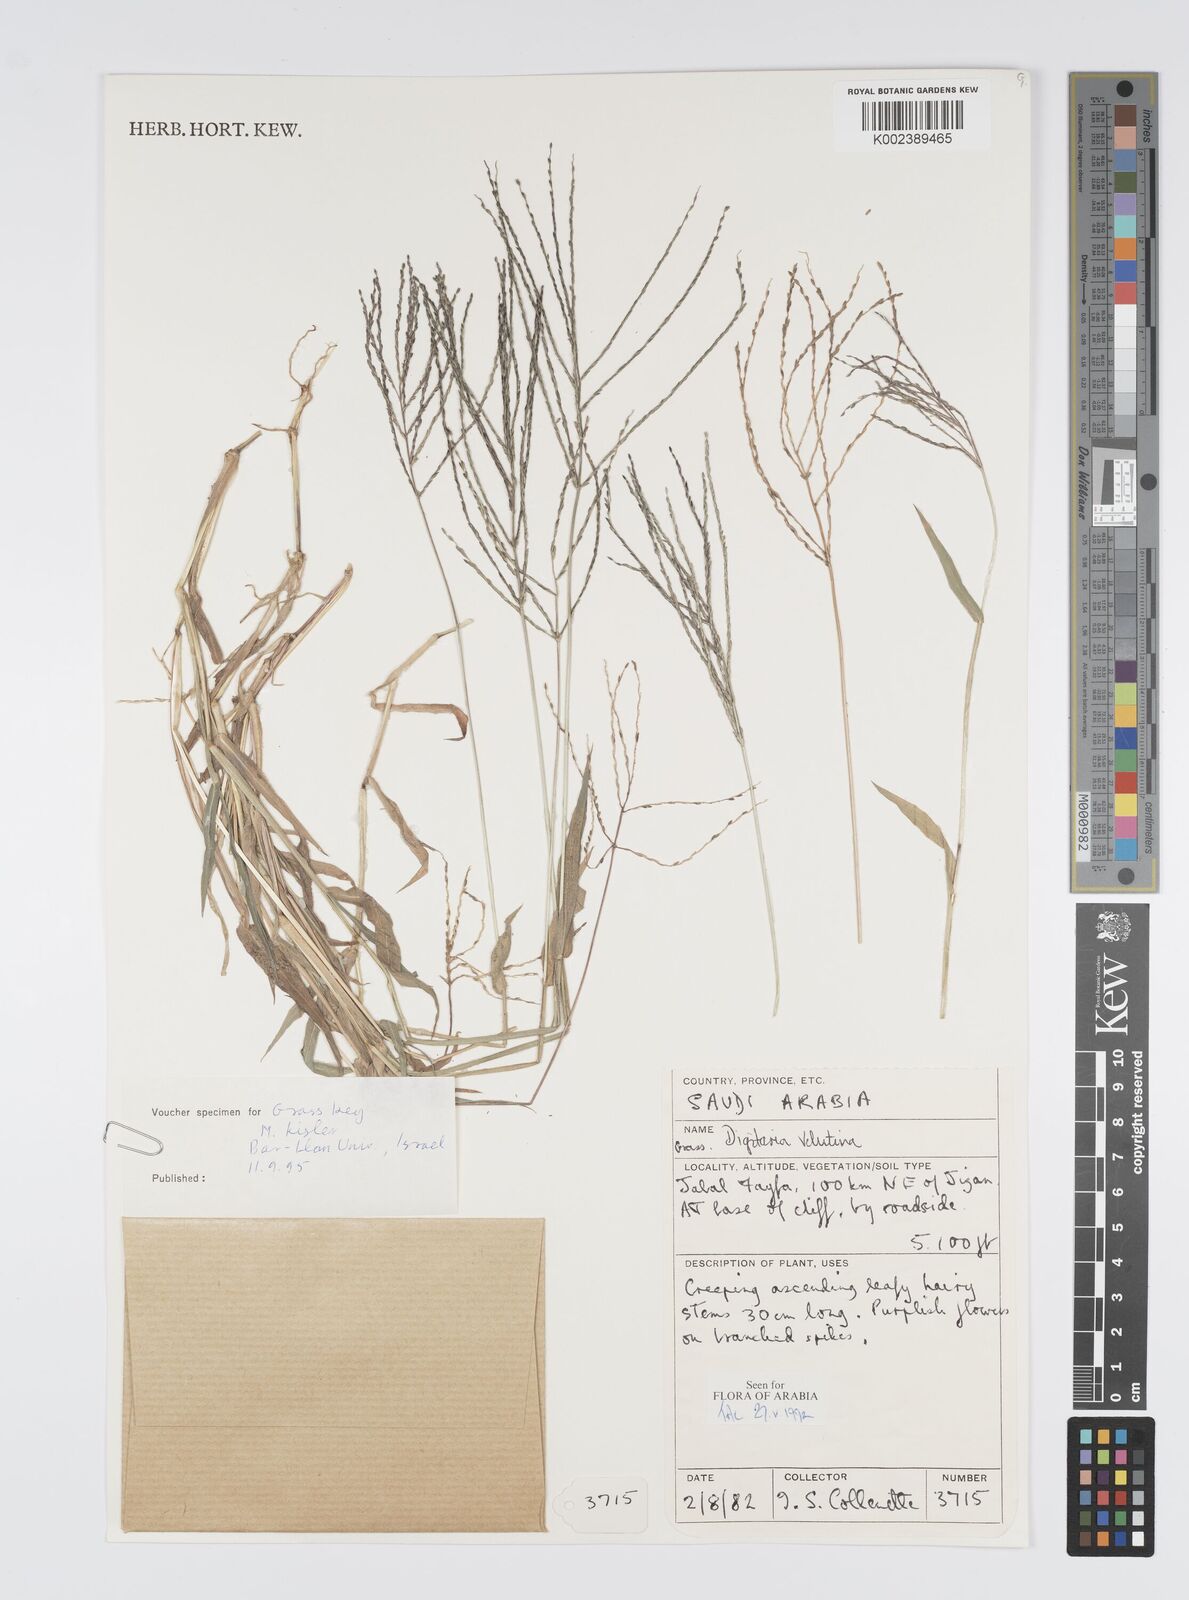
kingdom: Plantae
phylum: Tracheophyta
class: Liliopsida
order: Poales
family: Poaceae
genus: Digitaria
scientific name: Digitaria spec
